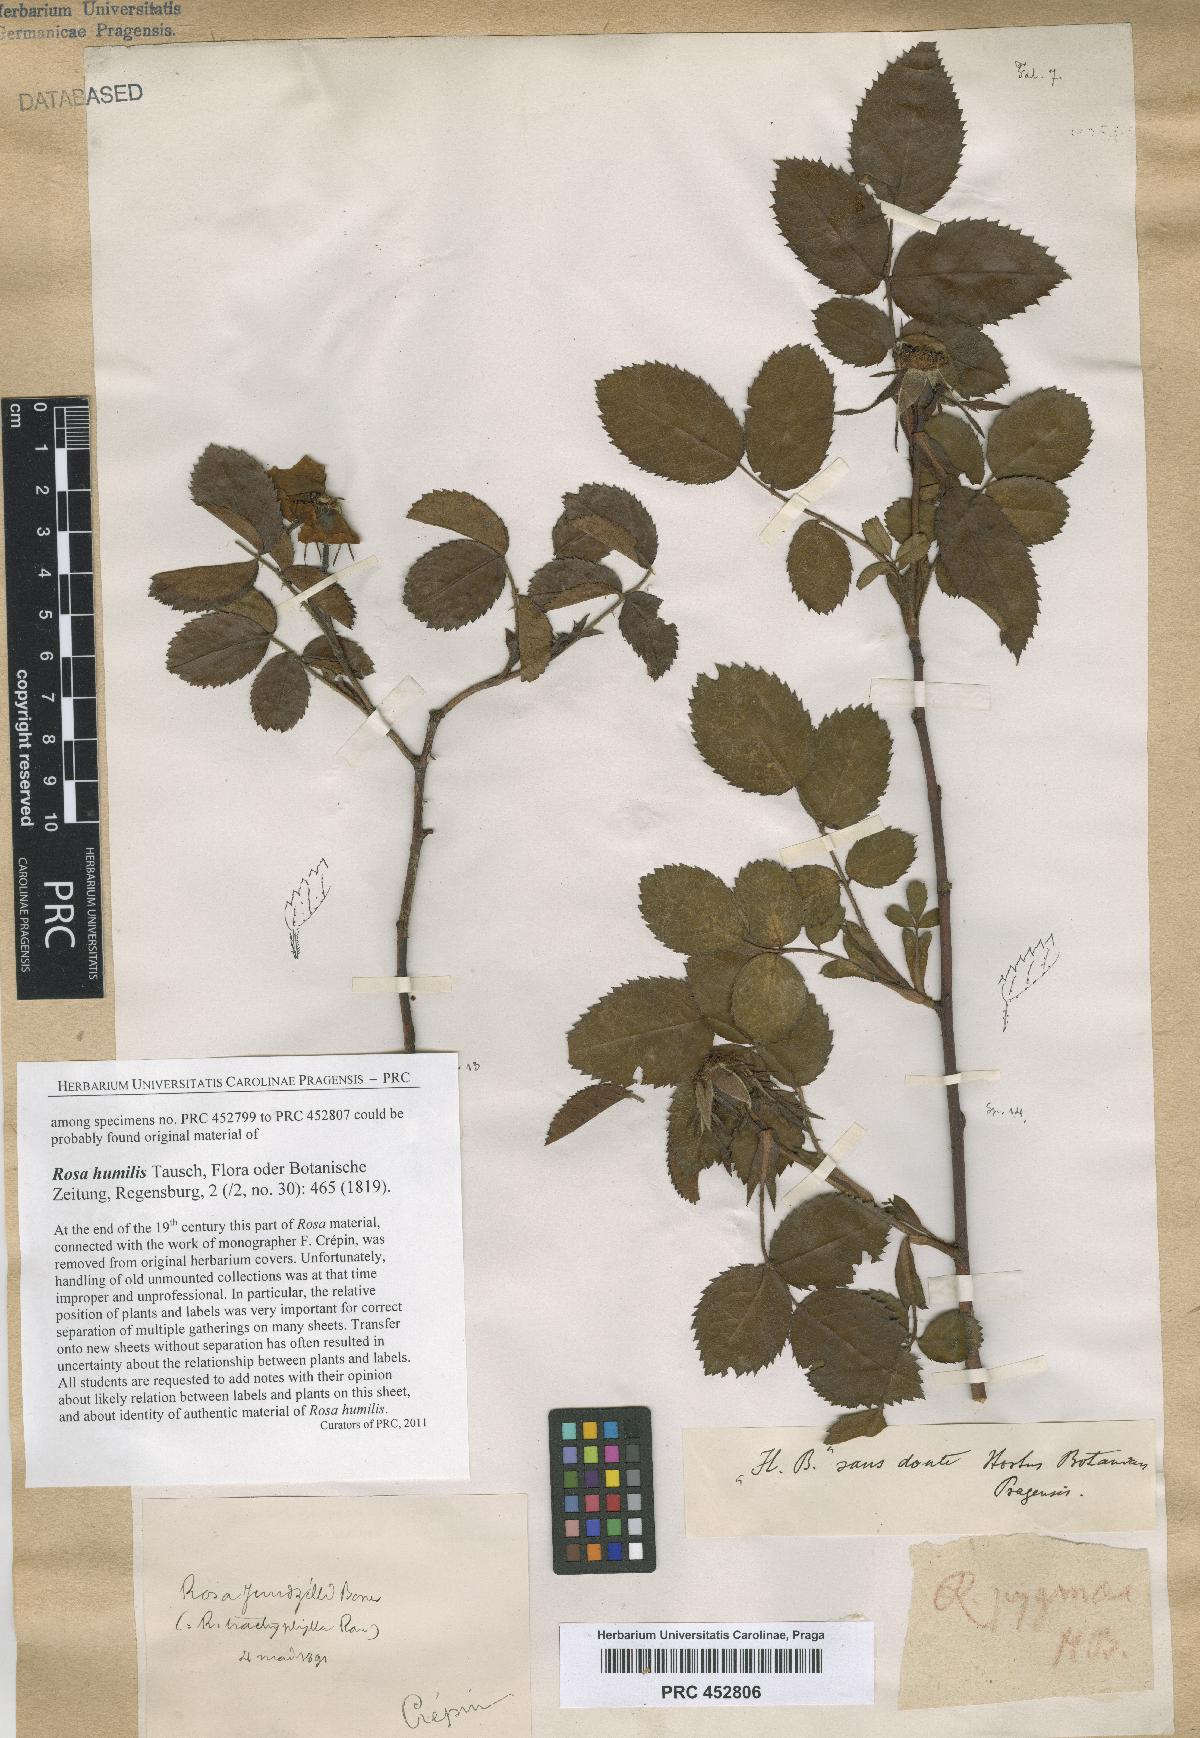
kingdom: Plantae
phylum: Tracheophyta
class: Magnoliopsida
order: Rosales
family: Rosaceae
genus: Rosa
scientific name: Rosa marginata
